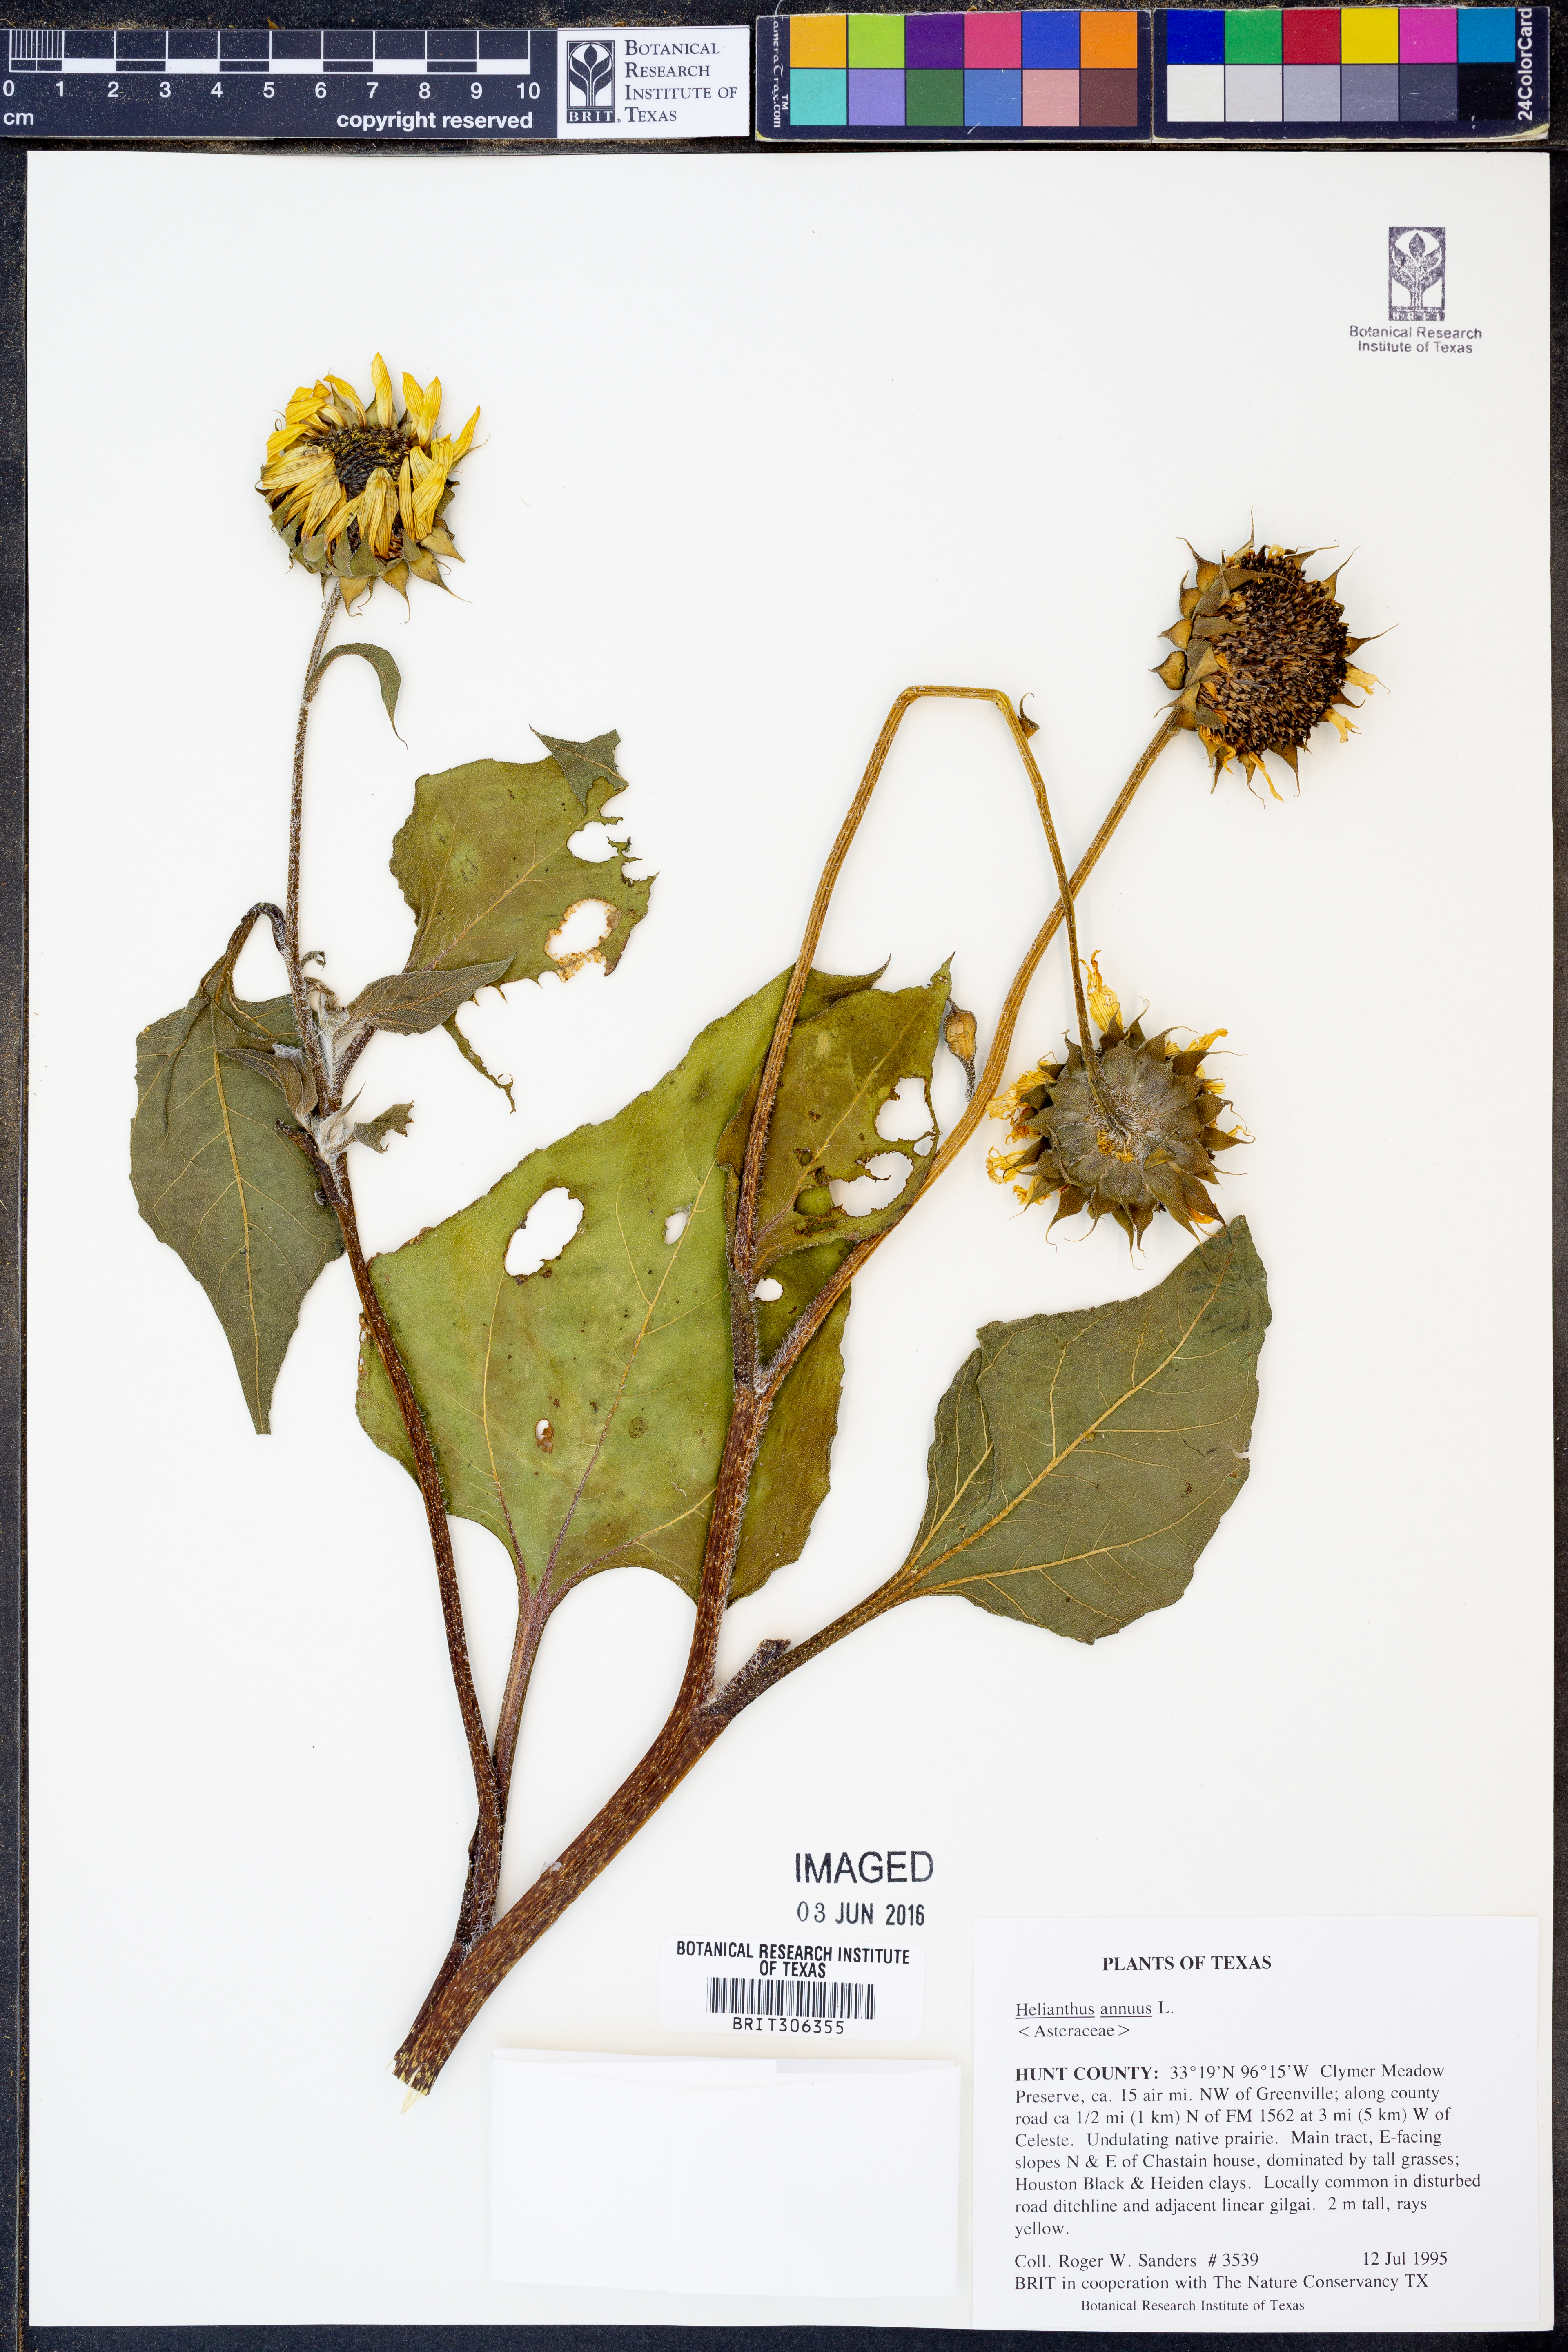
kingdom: Plantae
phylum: Tracheophyta
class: Magnoliopsida
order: Asterales
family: Asteraceae
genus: Helianthus
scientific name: Helianthus annuus
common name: Sunflower
